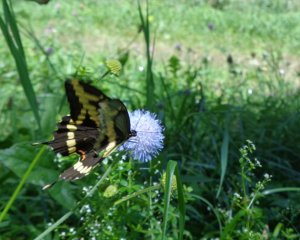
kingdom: Animalia
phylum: Arthropoda
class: Insecta
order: Lepidoptera
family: Papilionidae
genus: Papilio
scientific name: Papilio cresphontes
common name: Eastern Giant Swallowtail
